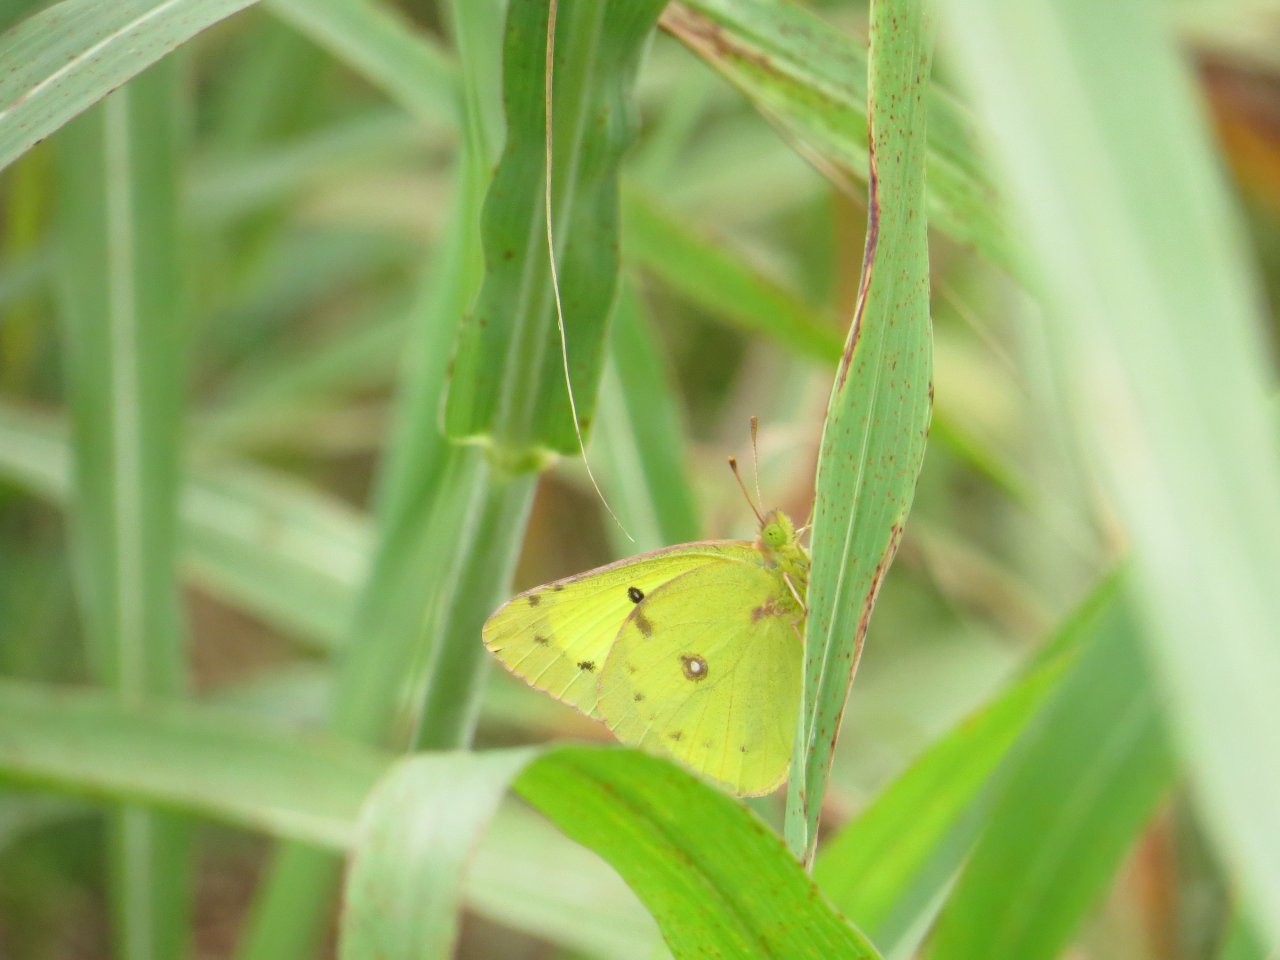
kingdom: Animalia
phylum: Arthropoda
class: Insecta
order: Lepidoptera
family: Pieridae
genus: Colias
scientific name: Colias philodice
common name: Clouded Sulphur
